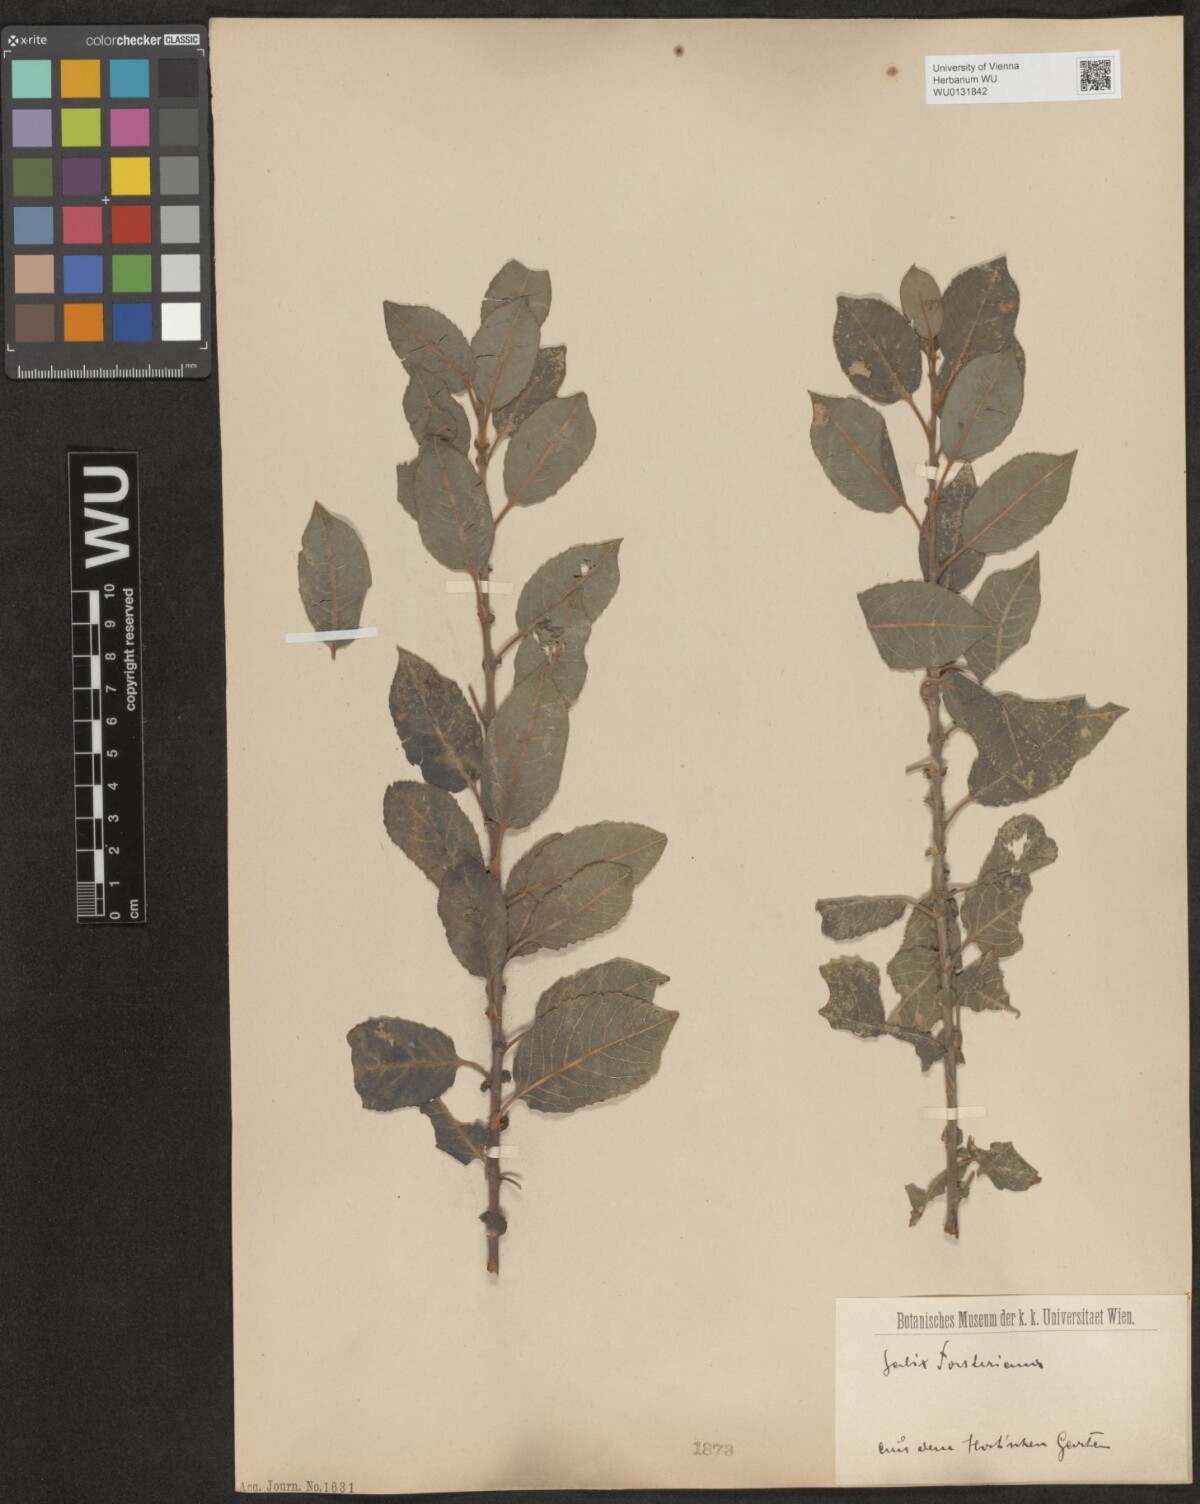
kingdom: Plantae
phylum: Tracheophyta
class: Magnoliopsida
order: Malpighiales
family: Salicaceae
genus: Salix
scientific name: Salix myrsinifolia
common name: Dark-leaved willow
